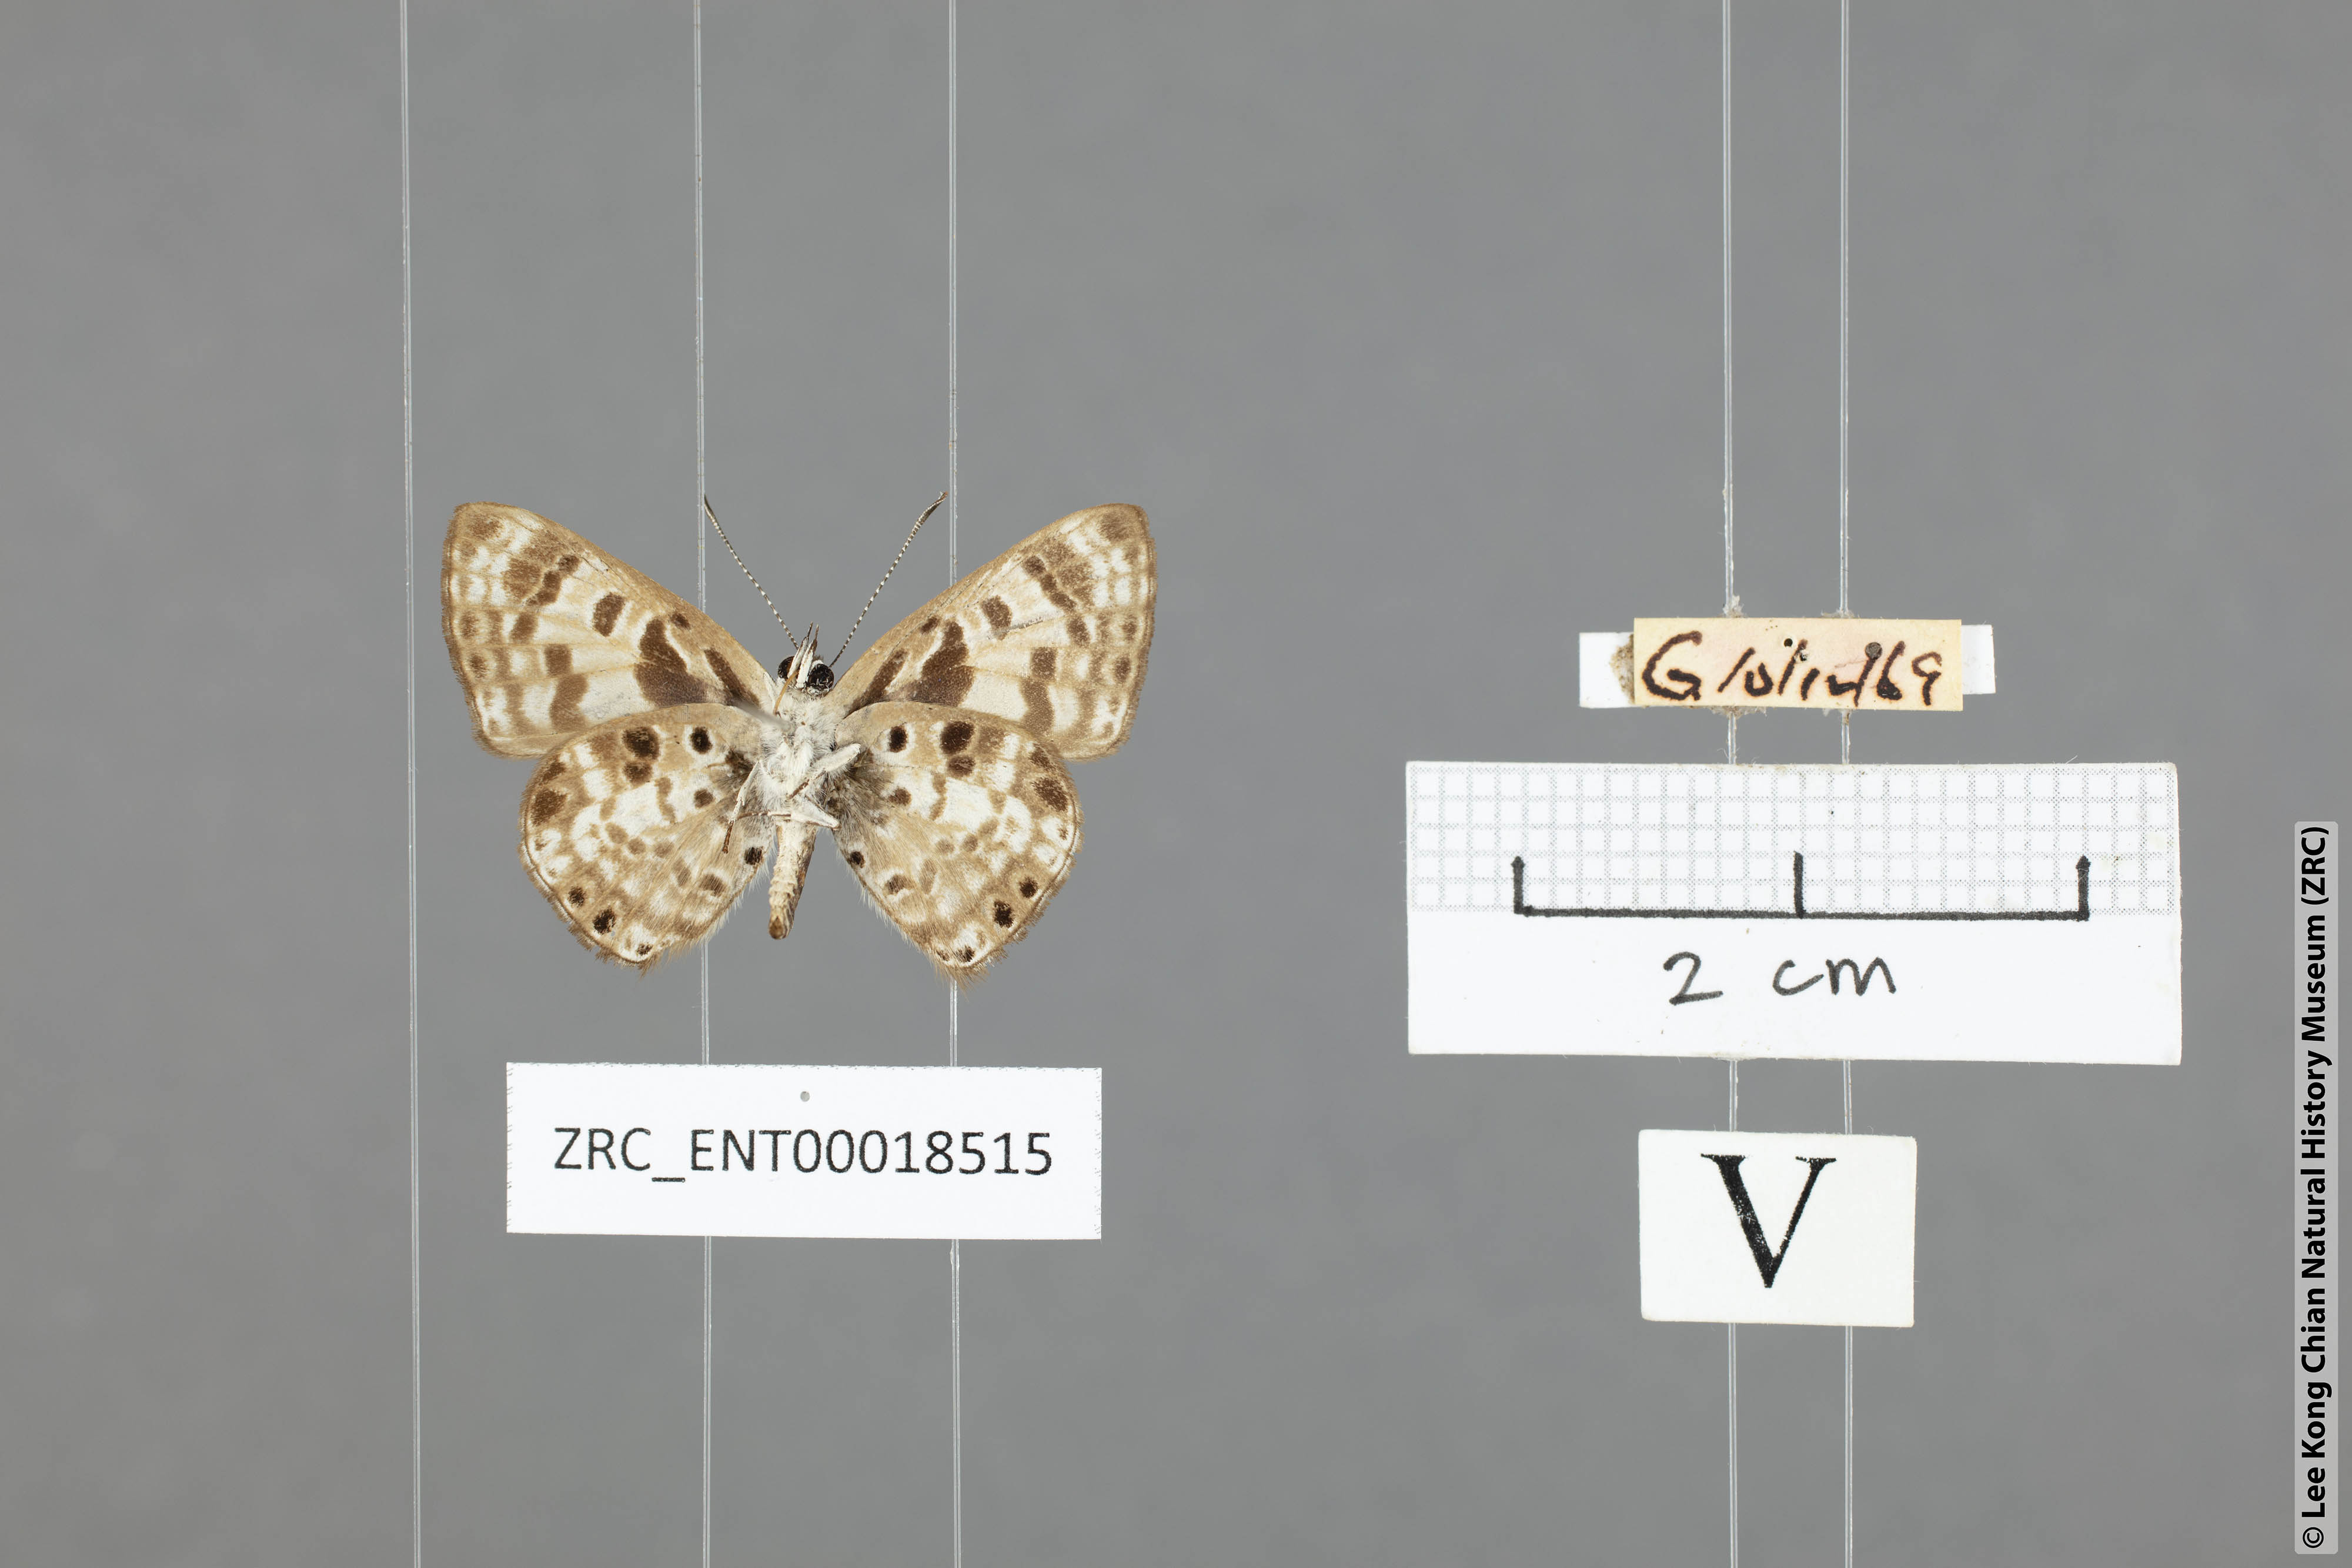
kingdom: Animalia
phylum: Arthropoda
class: Insecta
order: Lepidoptera
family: Lycaenidae
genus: Niphanda
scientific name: Niphanda cymbia
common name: Small pointed pierrot
